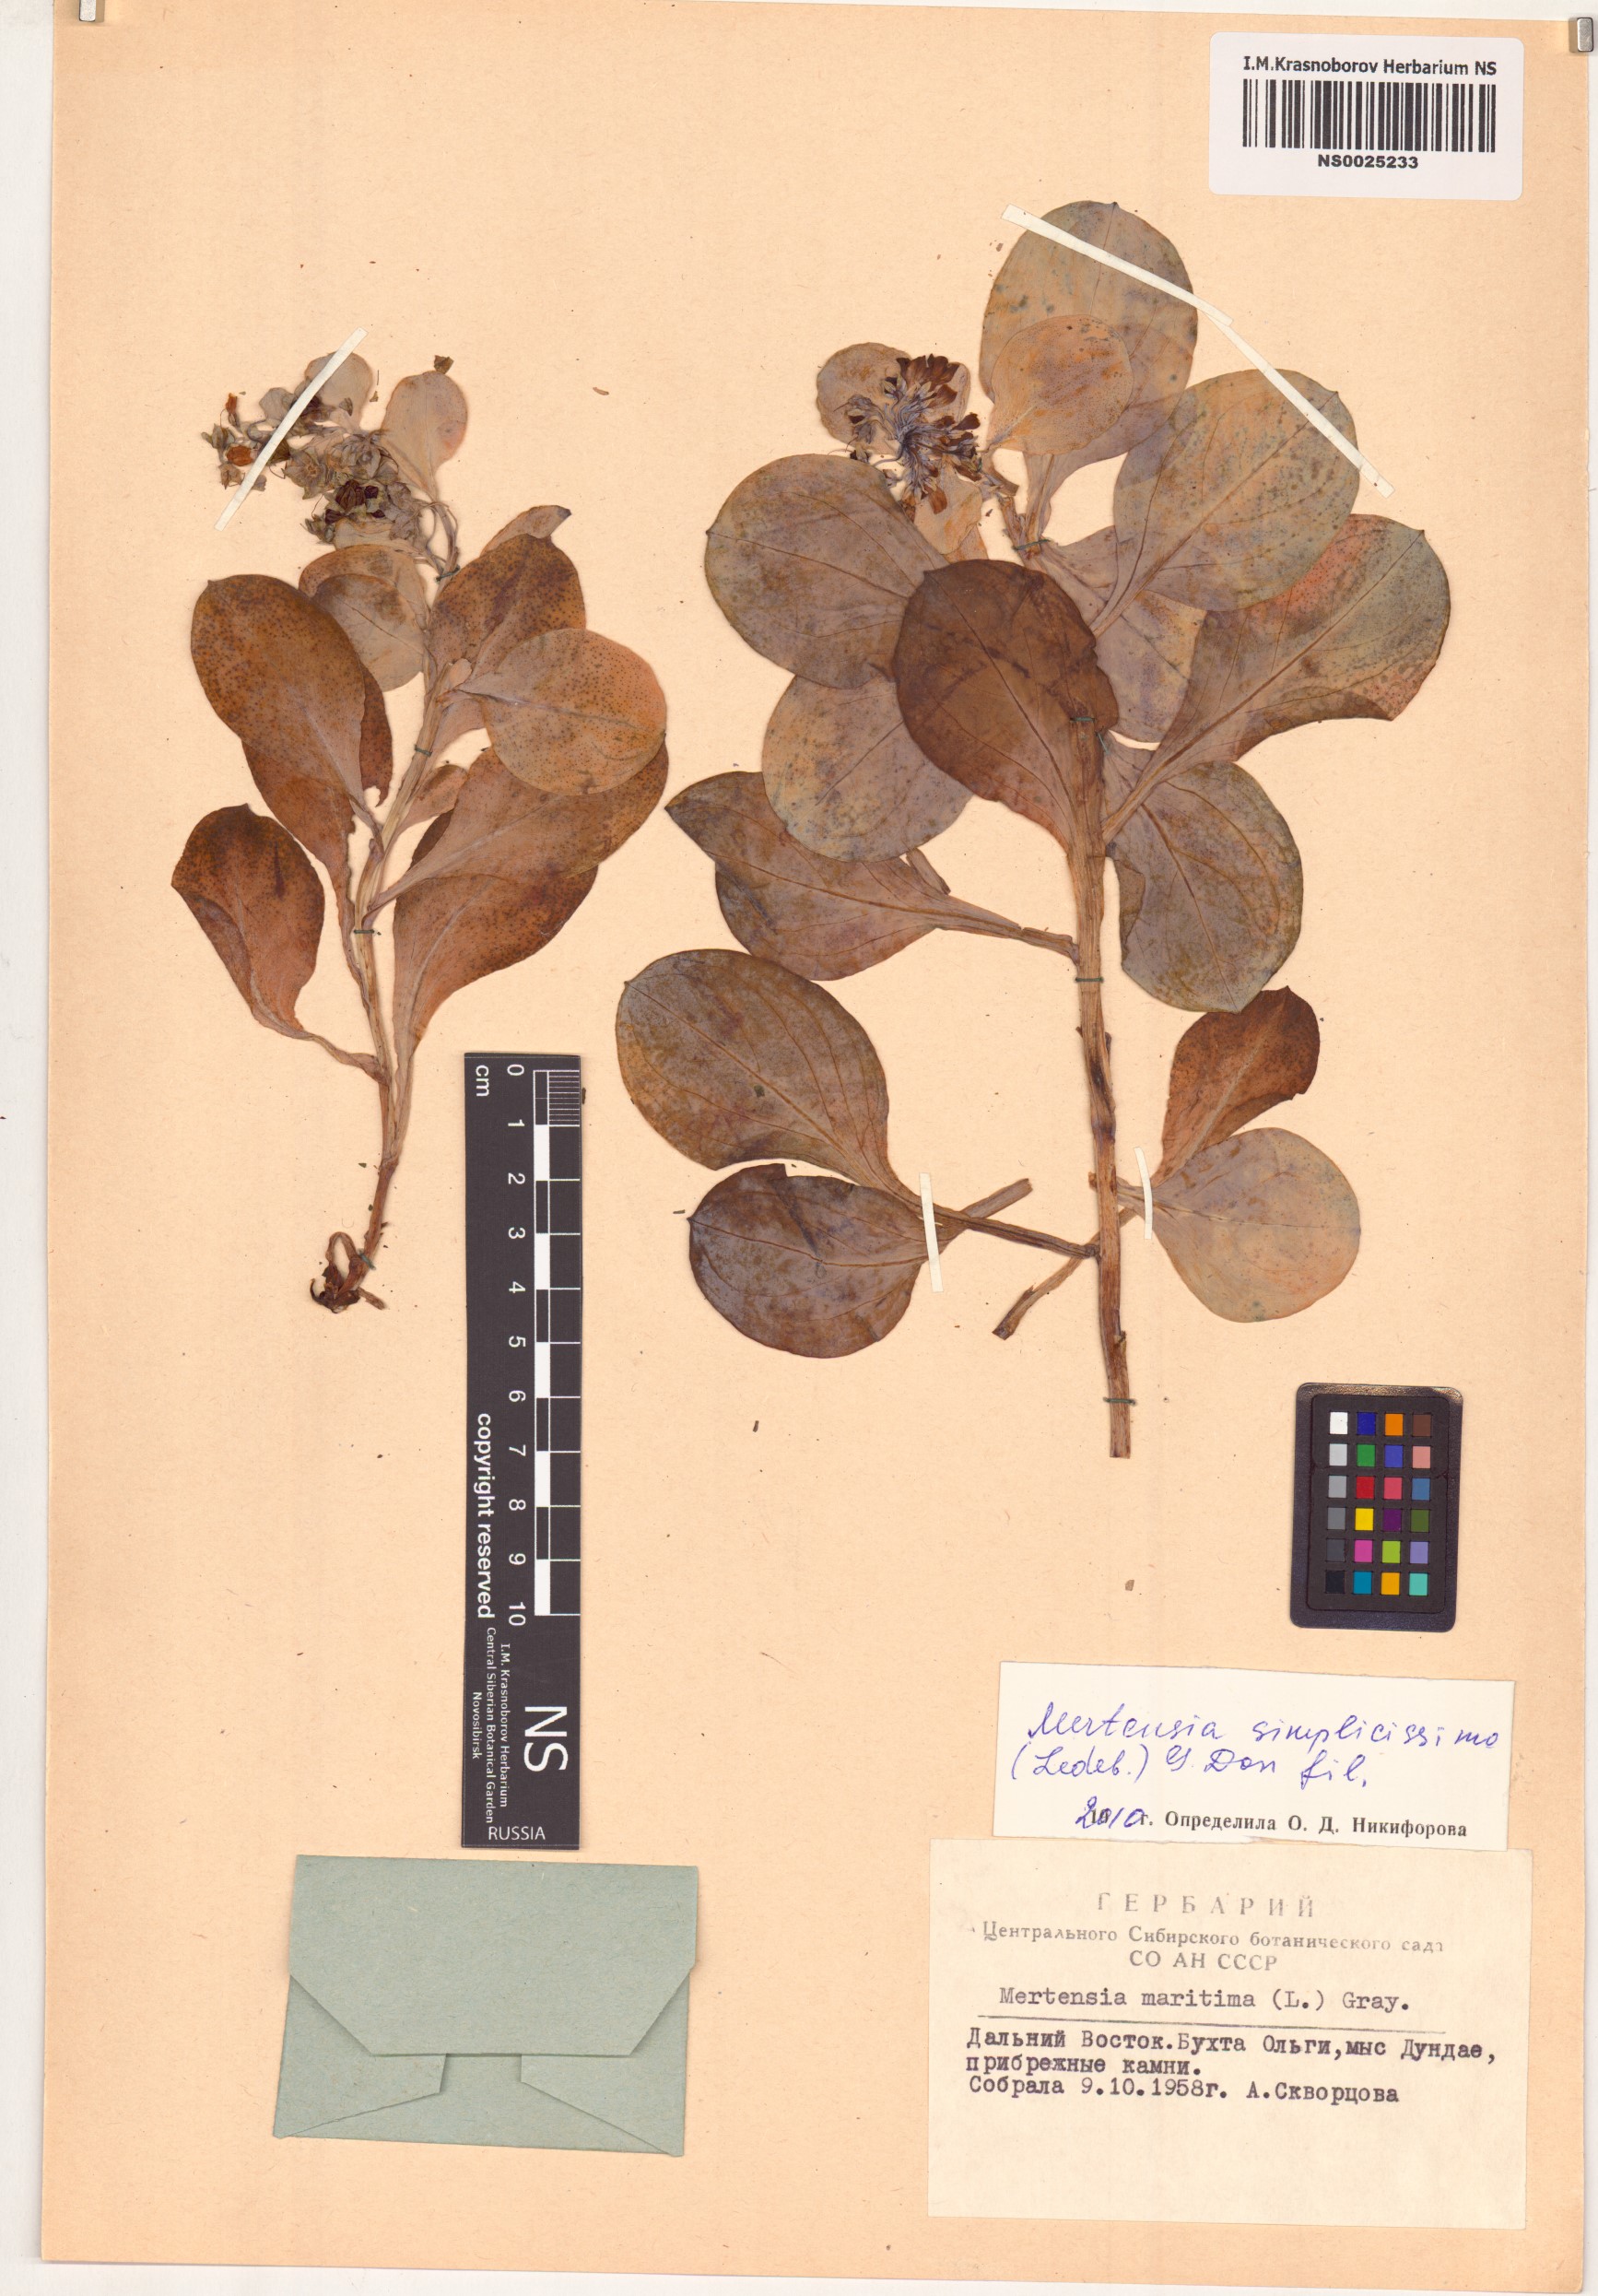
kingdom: Plantae
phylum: Tracheophyta
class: Magnoliopsida
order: Boraginales
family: Boraginaceae
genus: Mertensia
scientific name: Mertensia simplicissima
